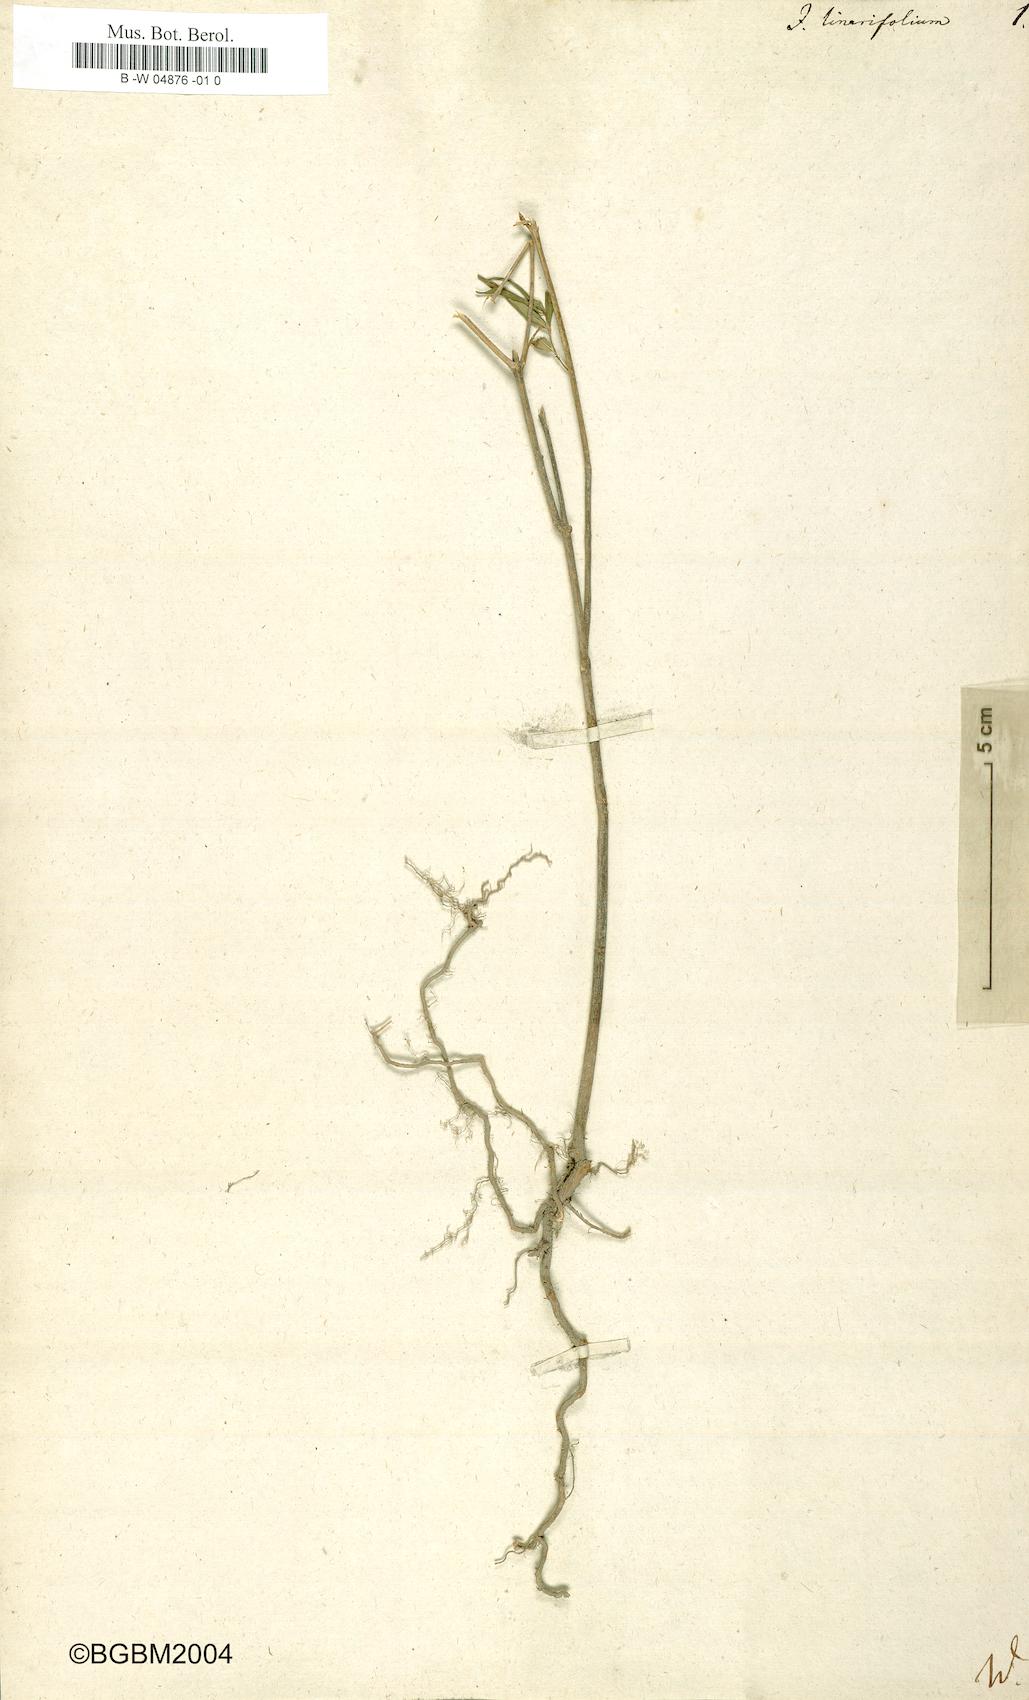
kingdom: Plantae
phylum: Tracheophyta
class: Magnoliopsida
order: Malpighiales
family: Violaceae
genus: Pombalia
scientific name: Pombalia linearifolia
